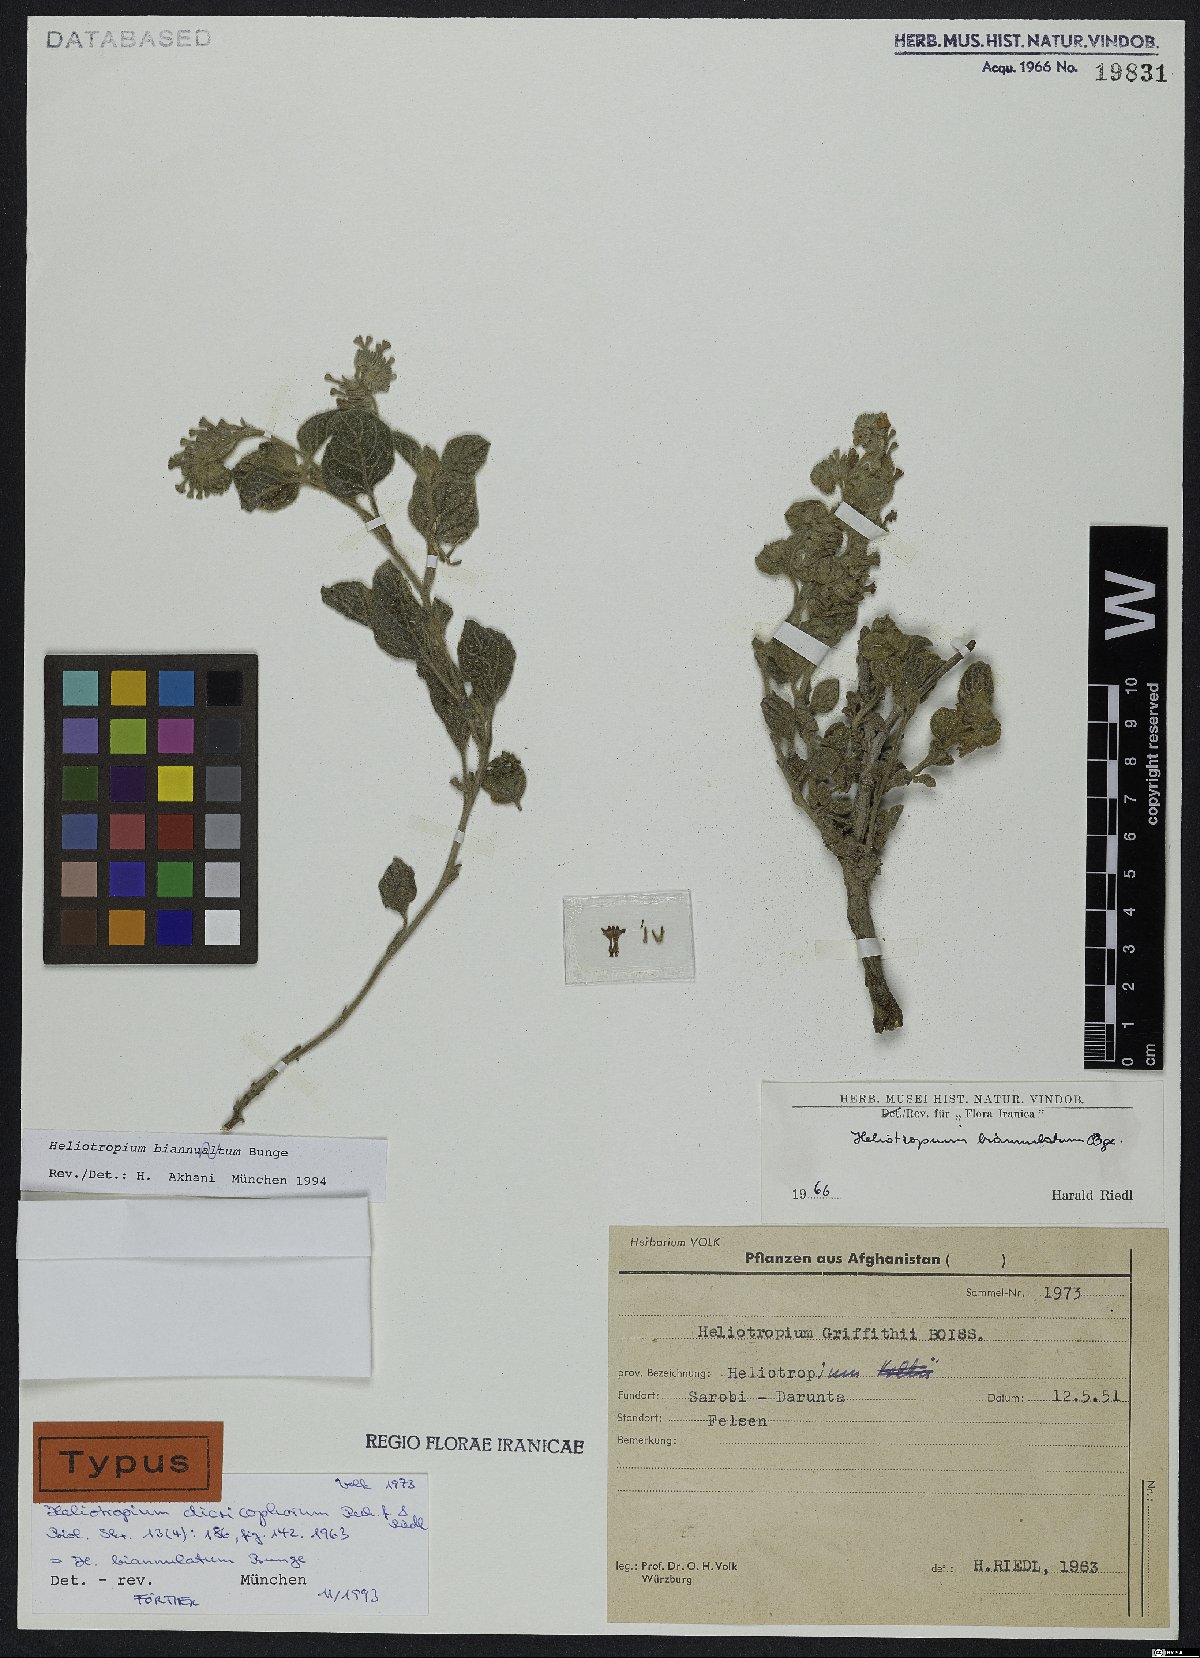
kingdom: Plantae
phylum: Tracheophyta
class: Magnoliopsida
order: Boraginales
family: Heliotropiaceae
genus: Heliotropium
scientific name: Heliotropium biannulatum
